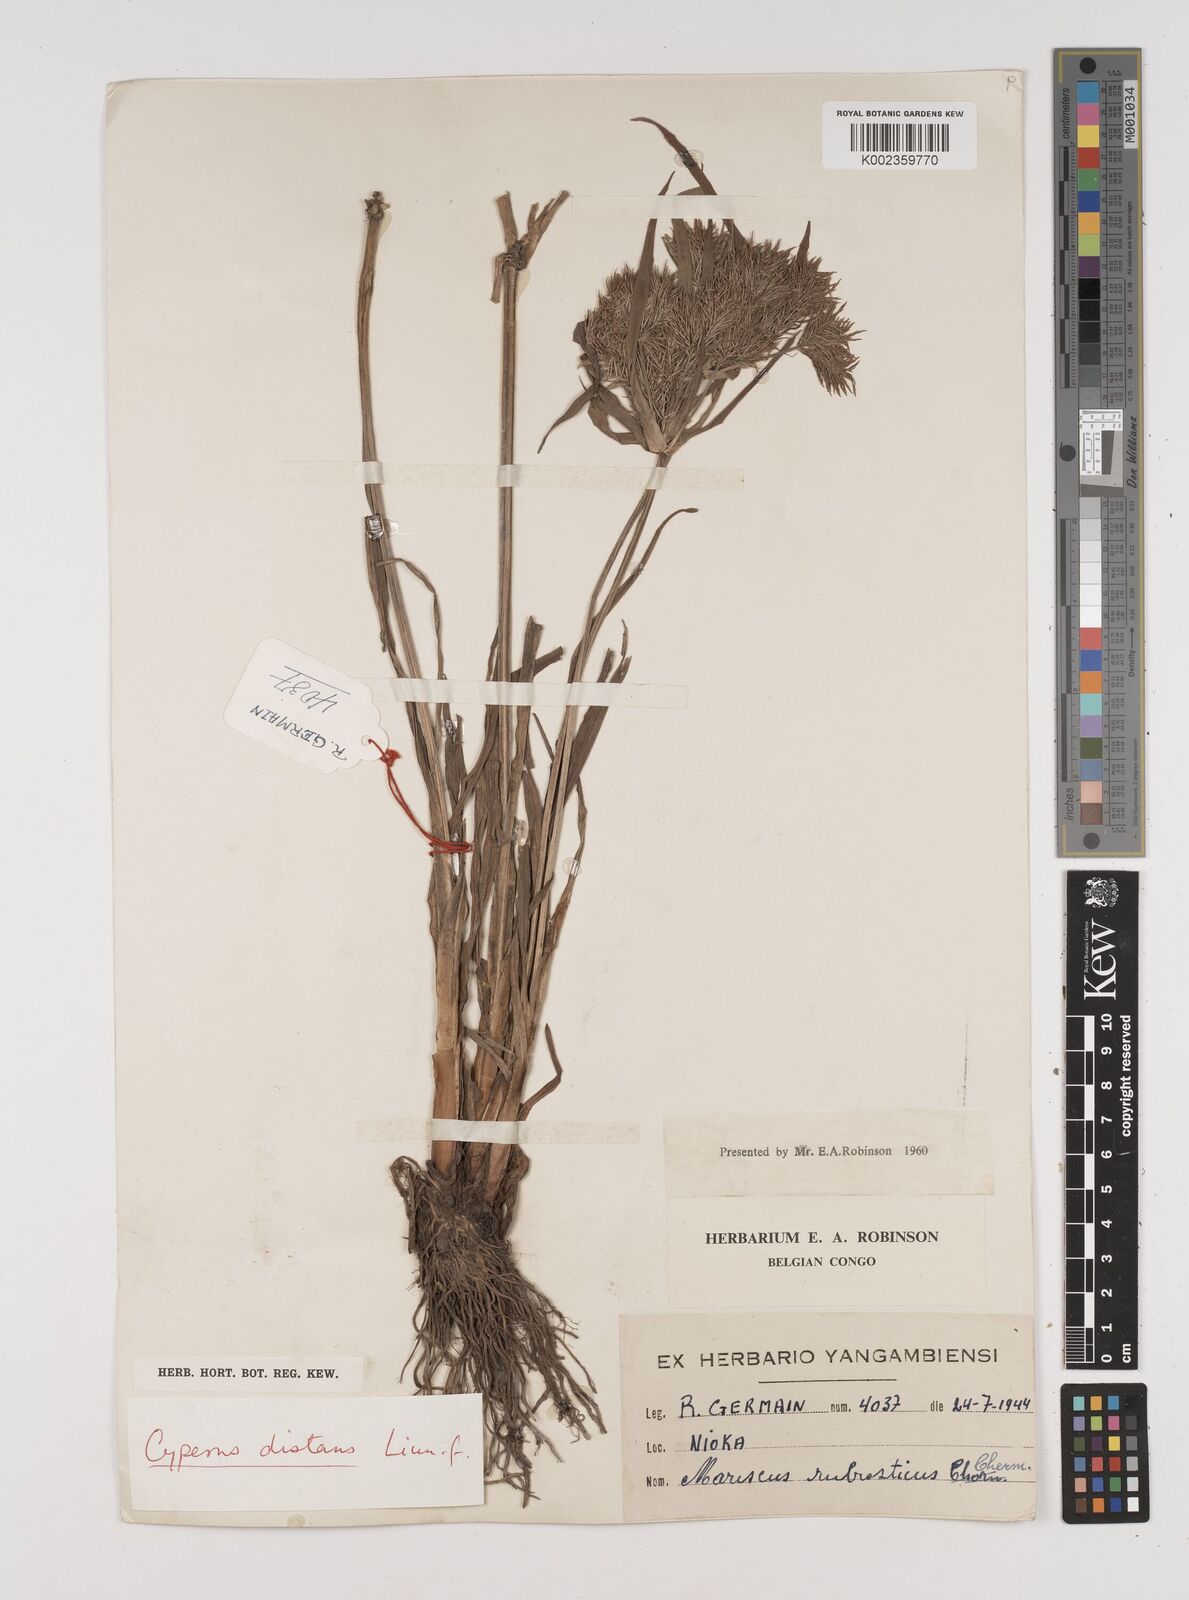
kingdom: Plantae
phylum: Tracheophyta
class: Liliopsida
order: Poales
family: Cyperaceae
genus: Cyperus
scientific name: Cyperus distans
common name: Slender cyperus
